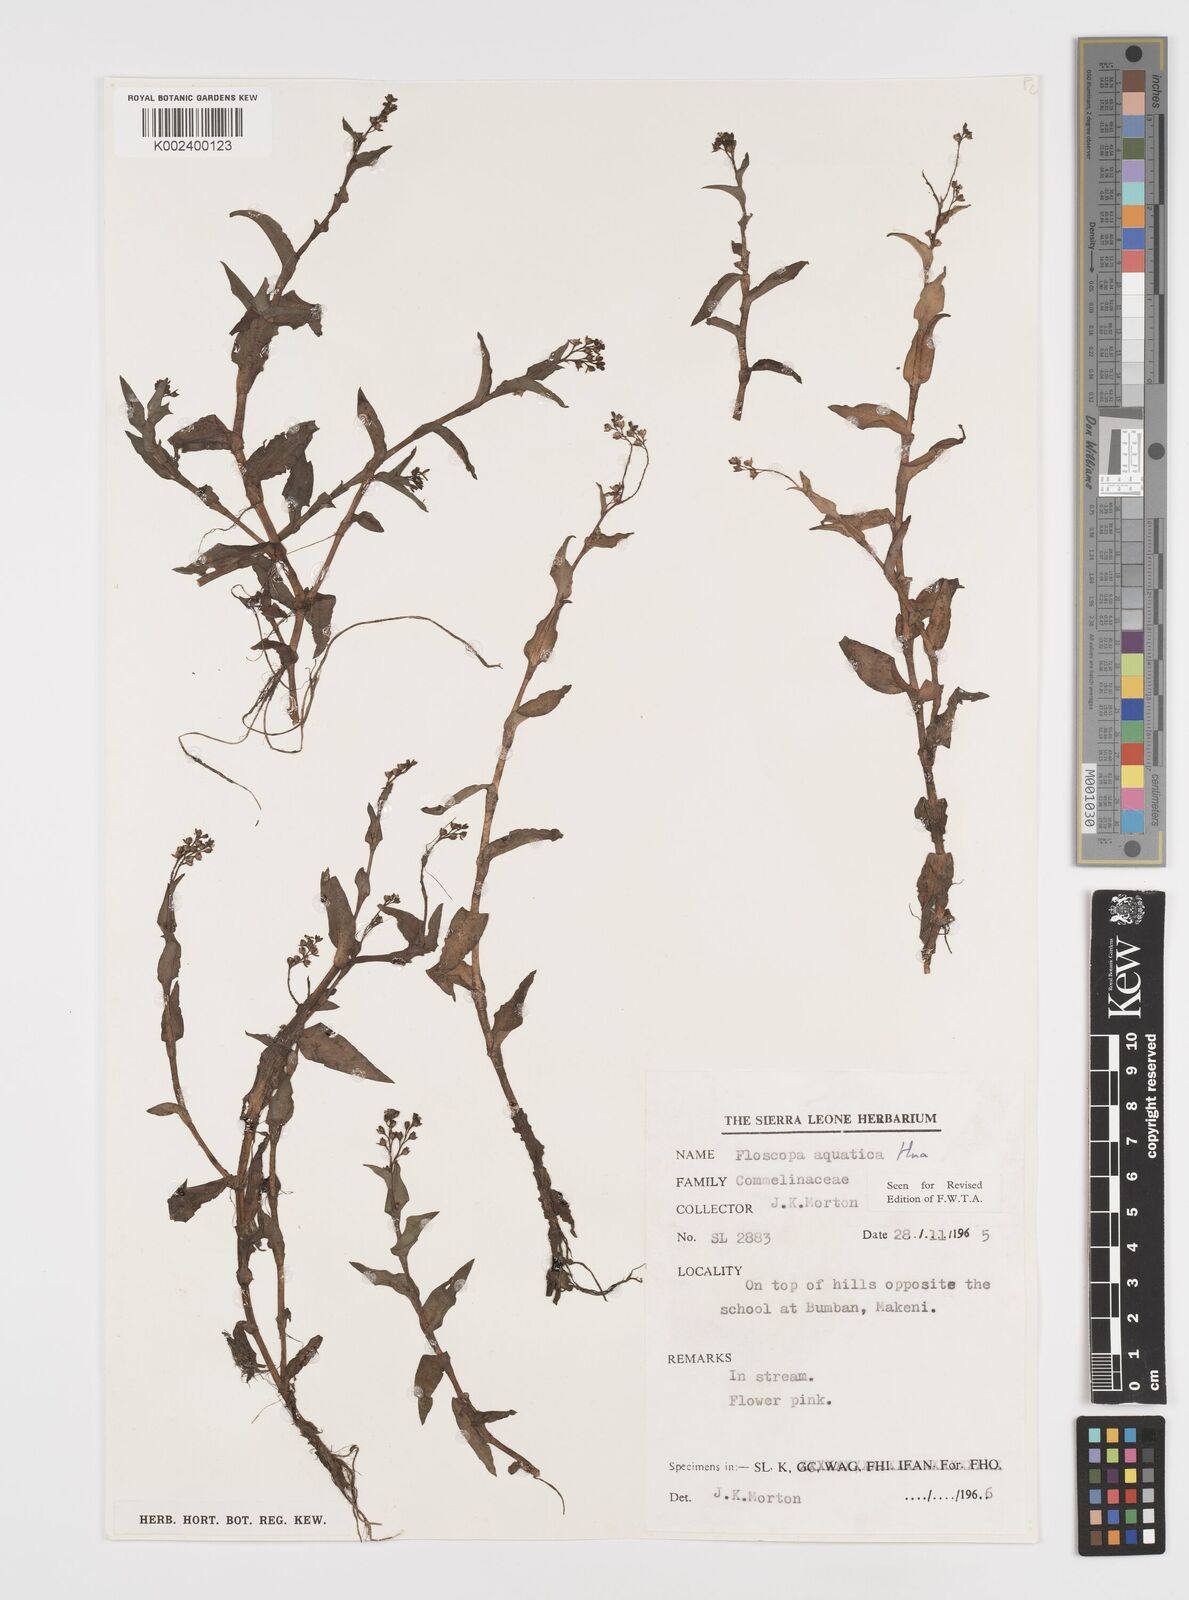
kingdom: Plantae
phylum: Tracheophyta
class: Liliopsida
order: Commelinales
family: Commelinaceae
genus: Floscopa
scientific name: Floscopa aquatica
